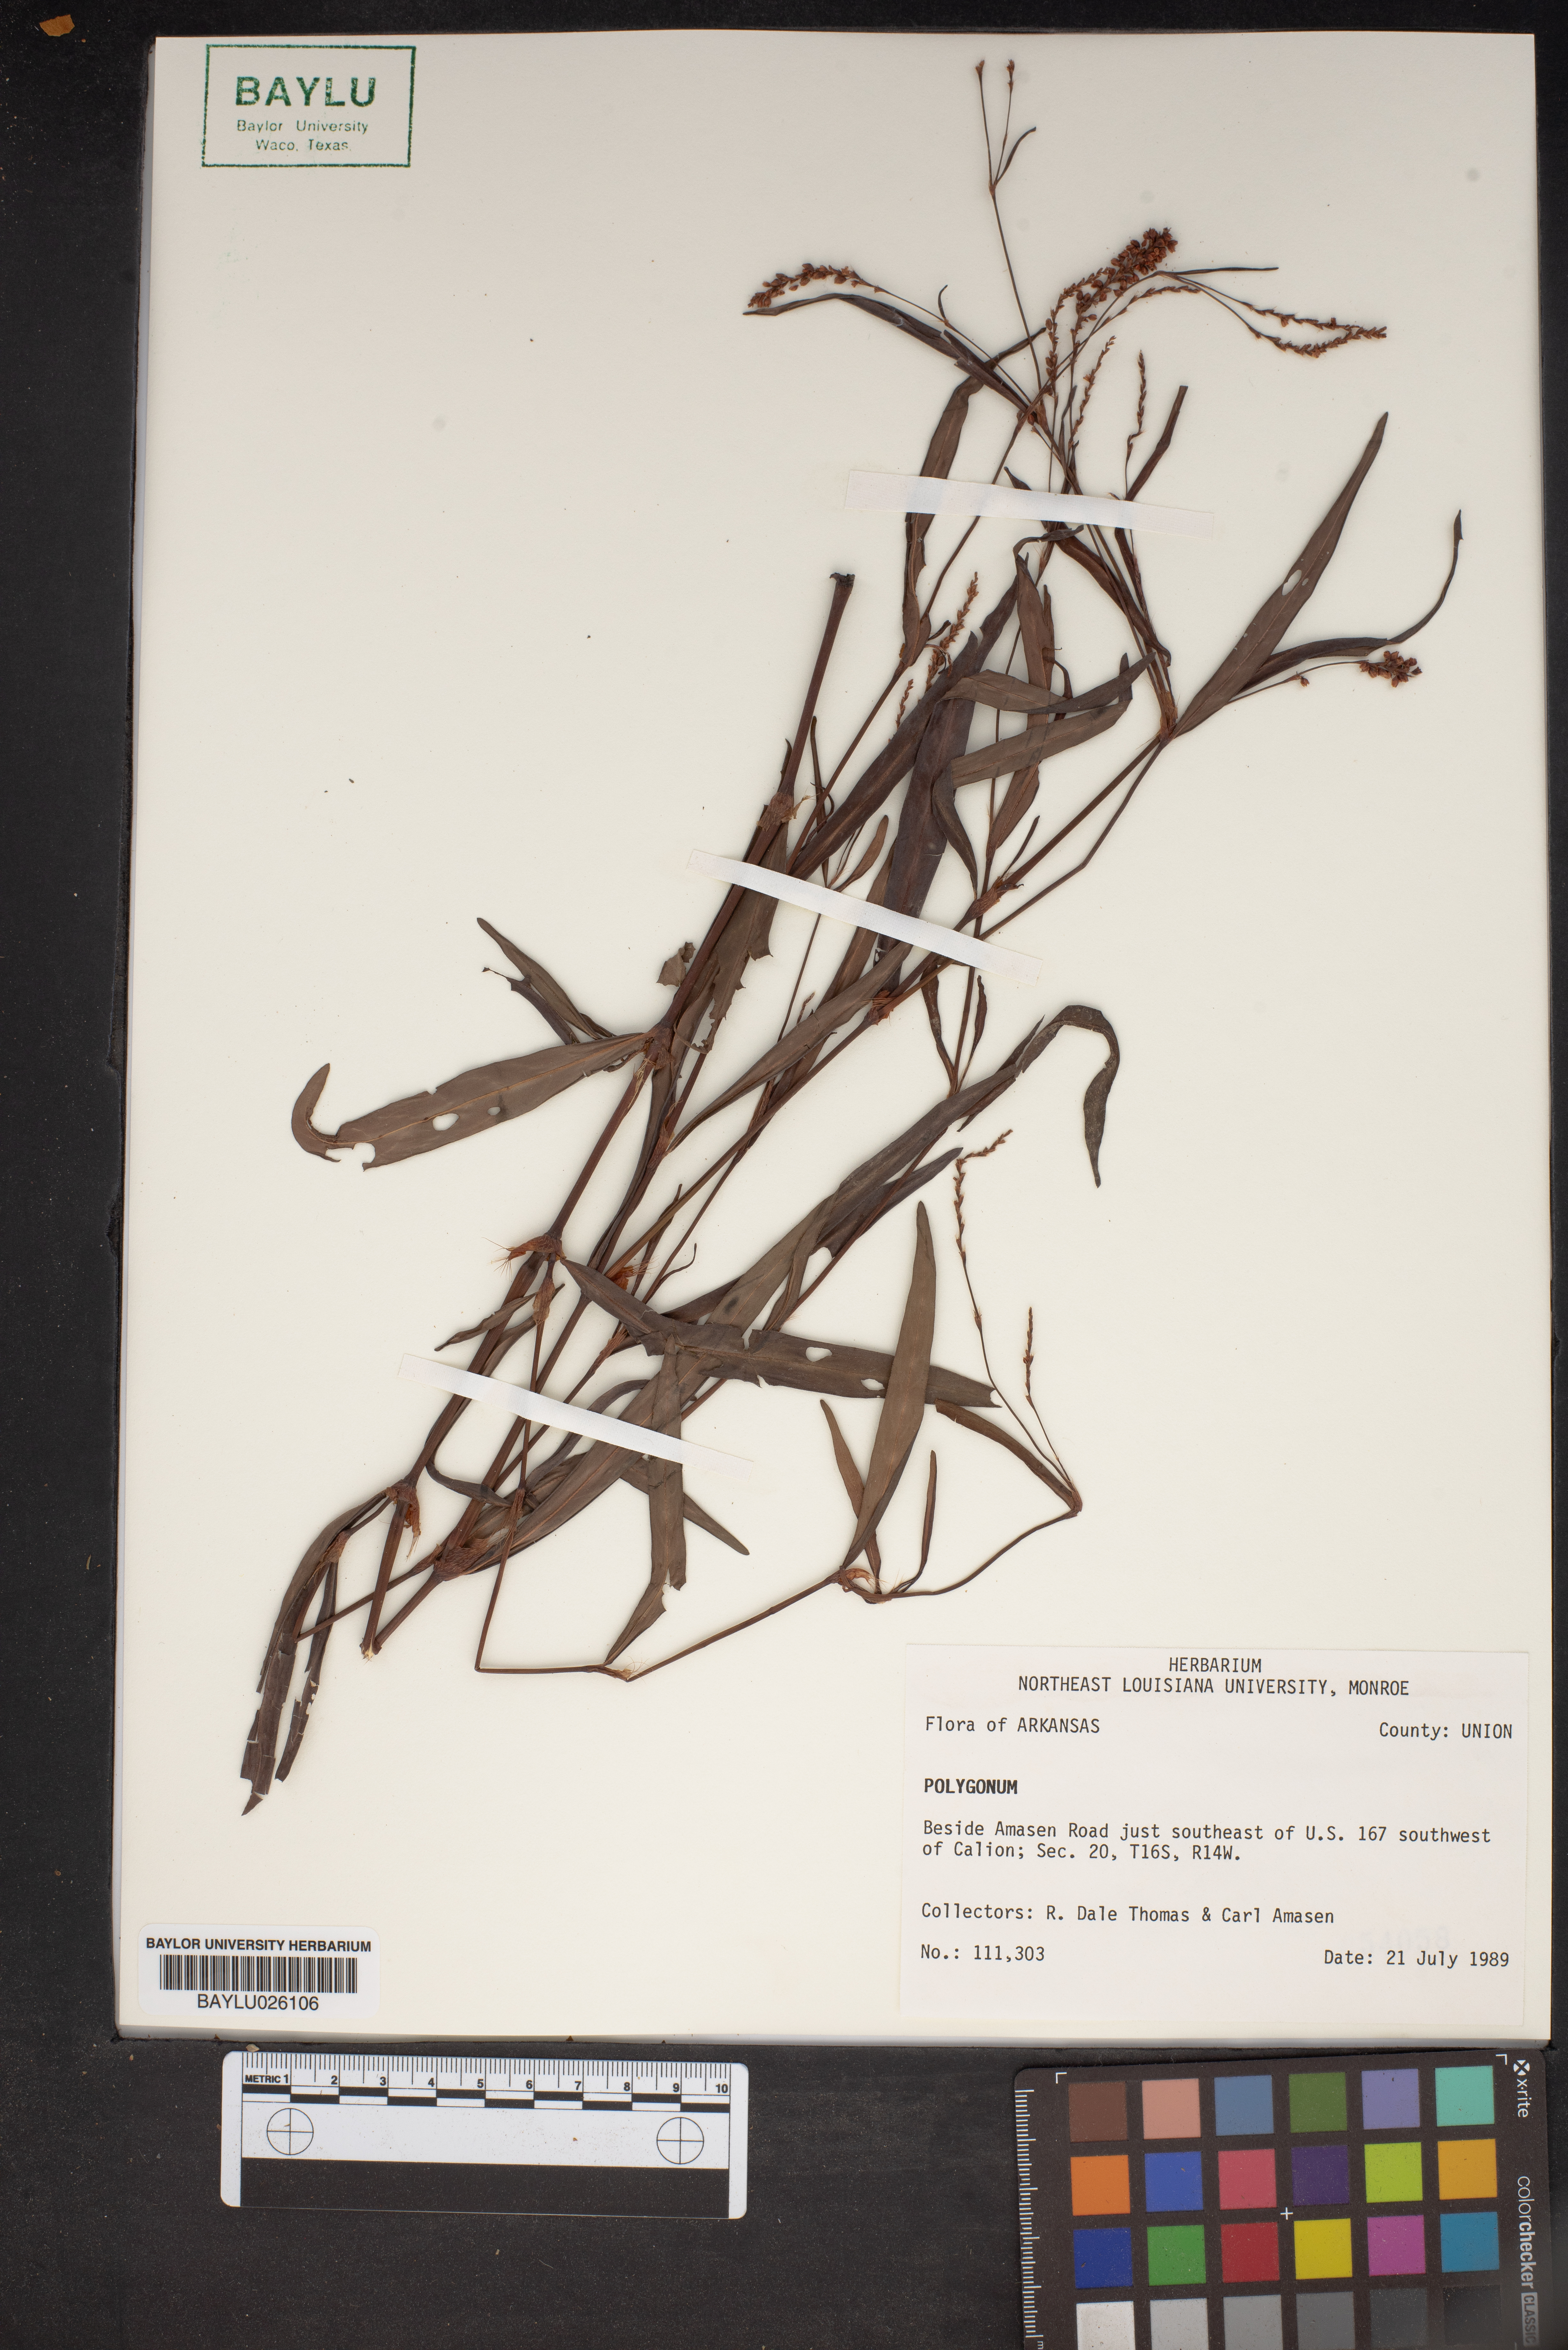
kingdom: Plantae
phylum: Tracheophyta
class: Magnoliopsida
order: Caryophyllales
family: Polygonaceae
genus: Polygonum
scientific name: Polygonum
